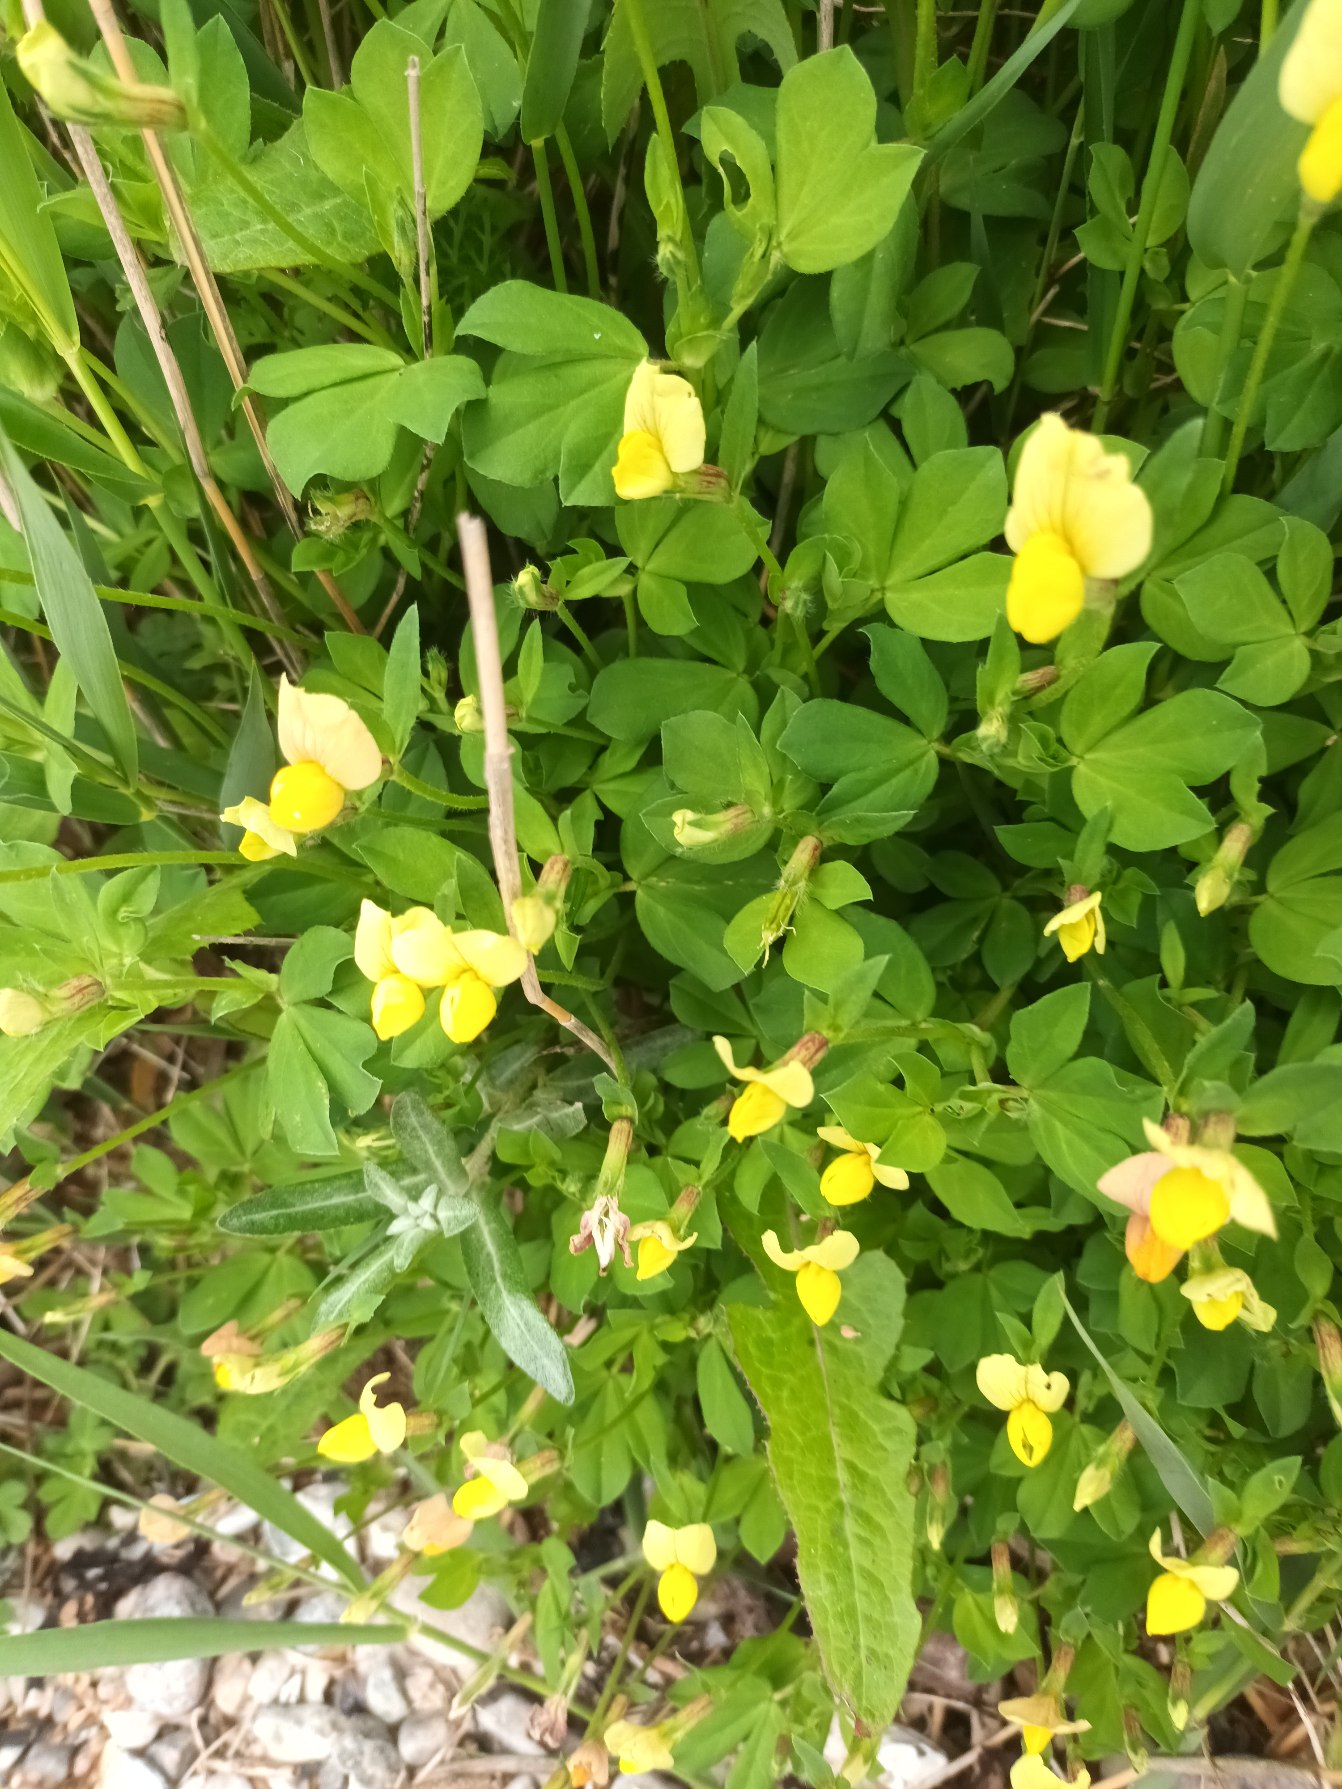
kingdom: Plantae
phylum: Tracheophyta
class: Magnoliopsida
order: Fabales
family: Fabaceae
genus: Lotus
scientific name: Lotus maritimus
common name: Kantbælg
